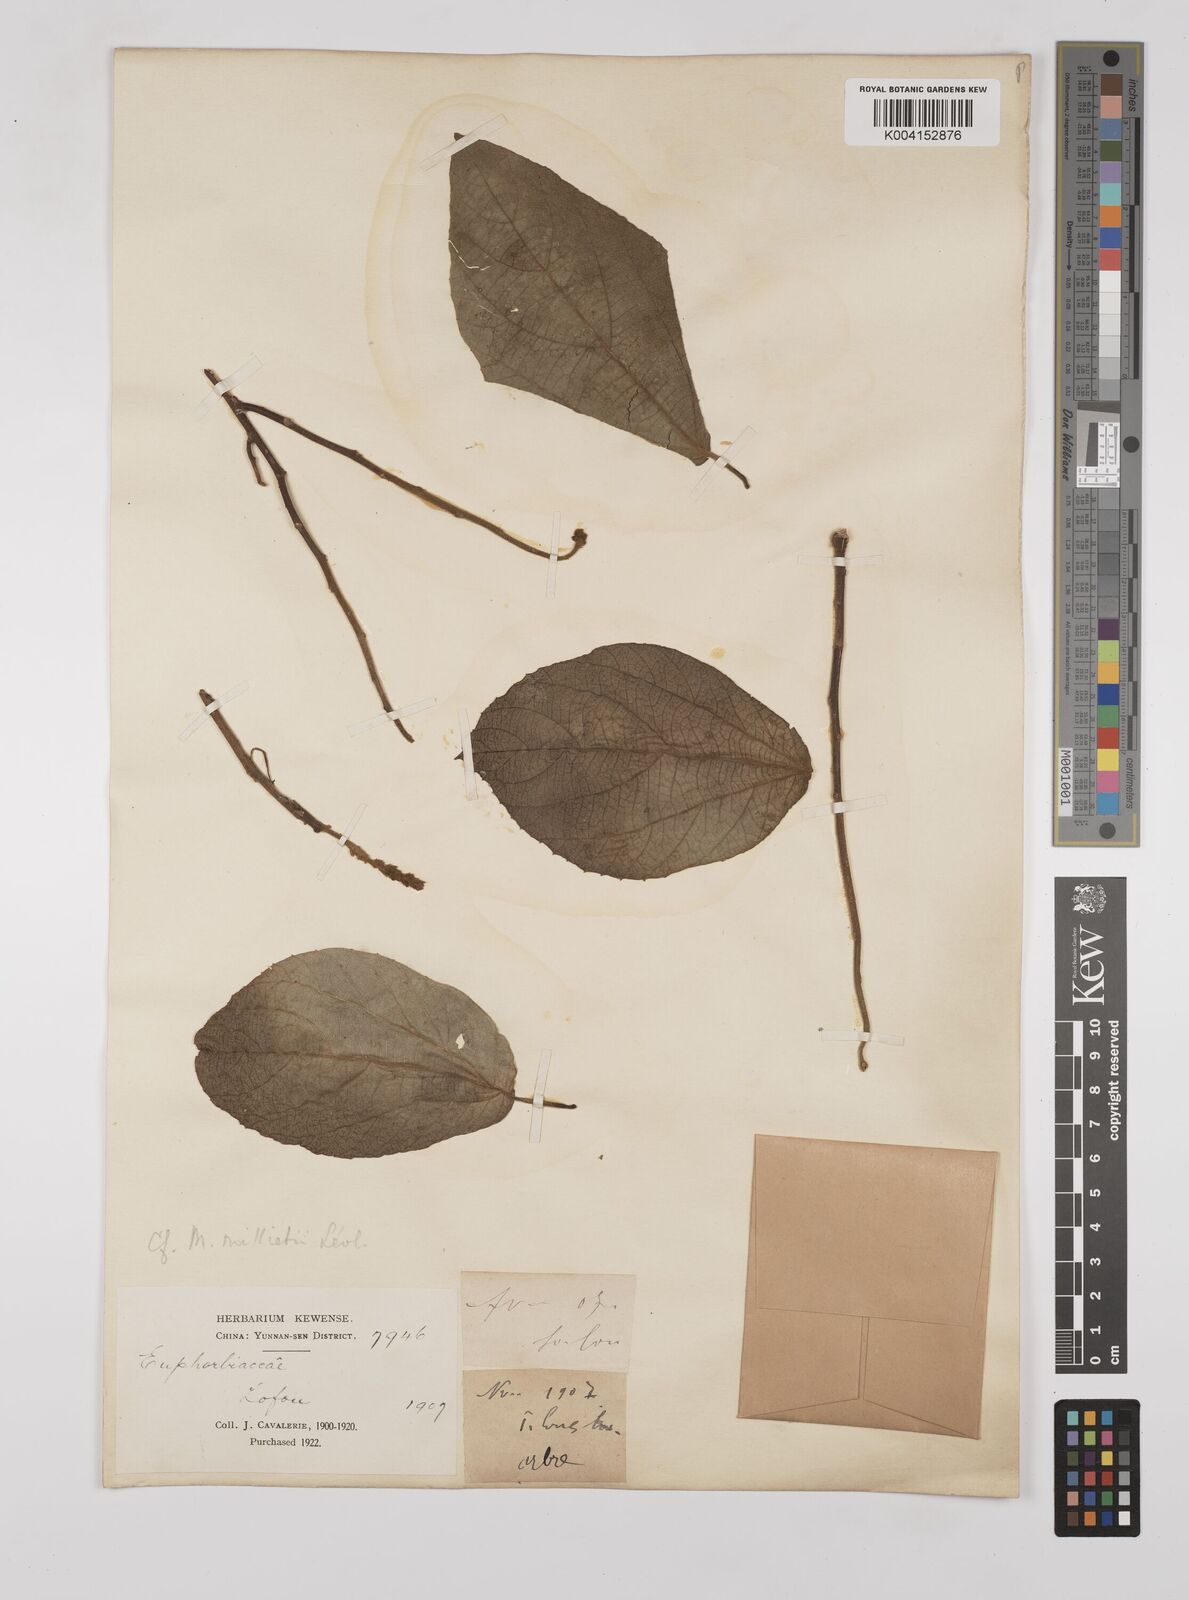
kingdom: Plantae
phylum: Tracheophyta
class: Magnoliopsida
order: Malpighiales
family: Euphorbiaceae
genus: Mallotus
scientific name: Mallotus millietii
